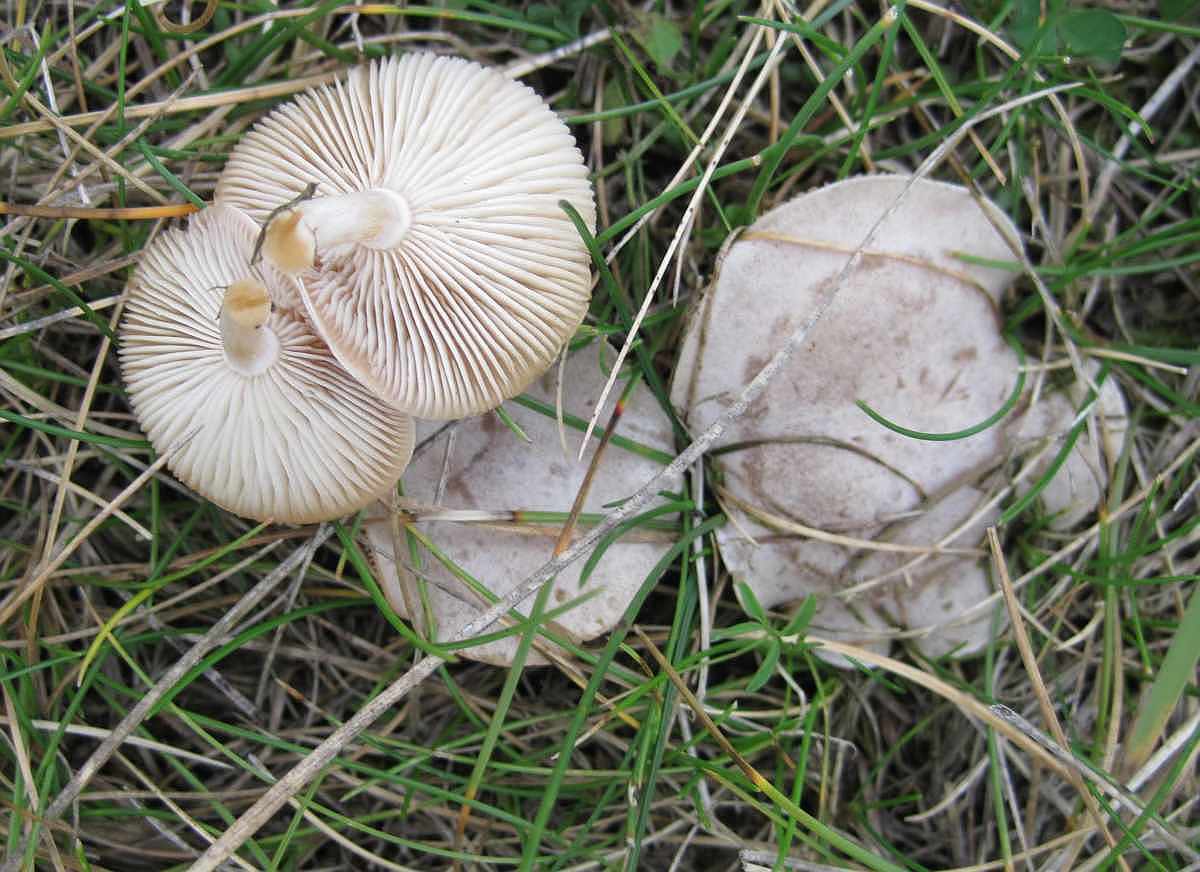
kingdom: Fungi
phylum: Basidiomycota
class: Agaricomycetes
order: Agaricales
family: Tricholomataceae
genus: Clitocybe
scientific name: Clitocybe rivulosa
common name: eng-tragthat
